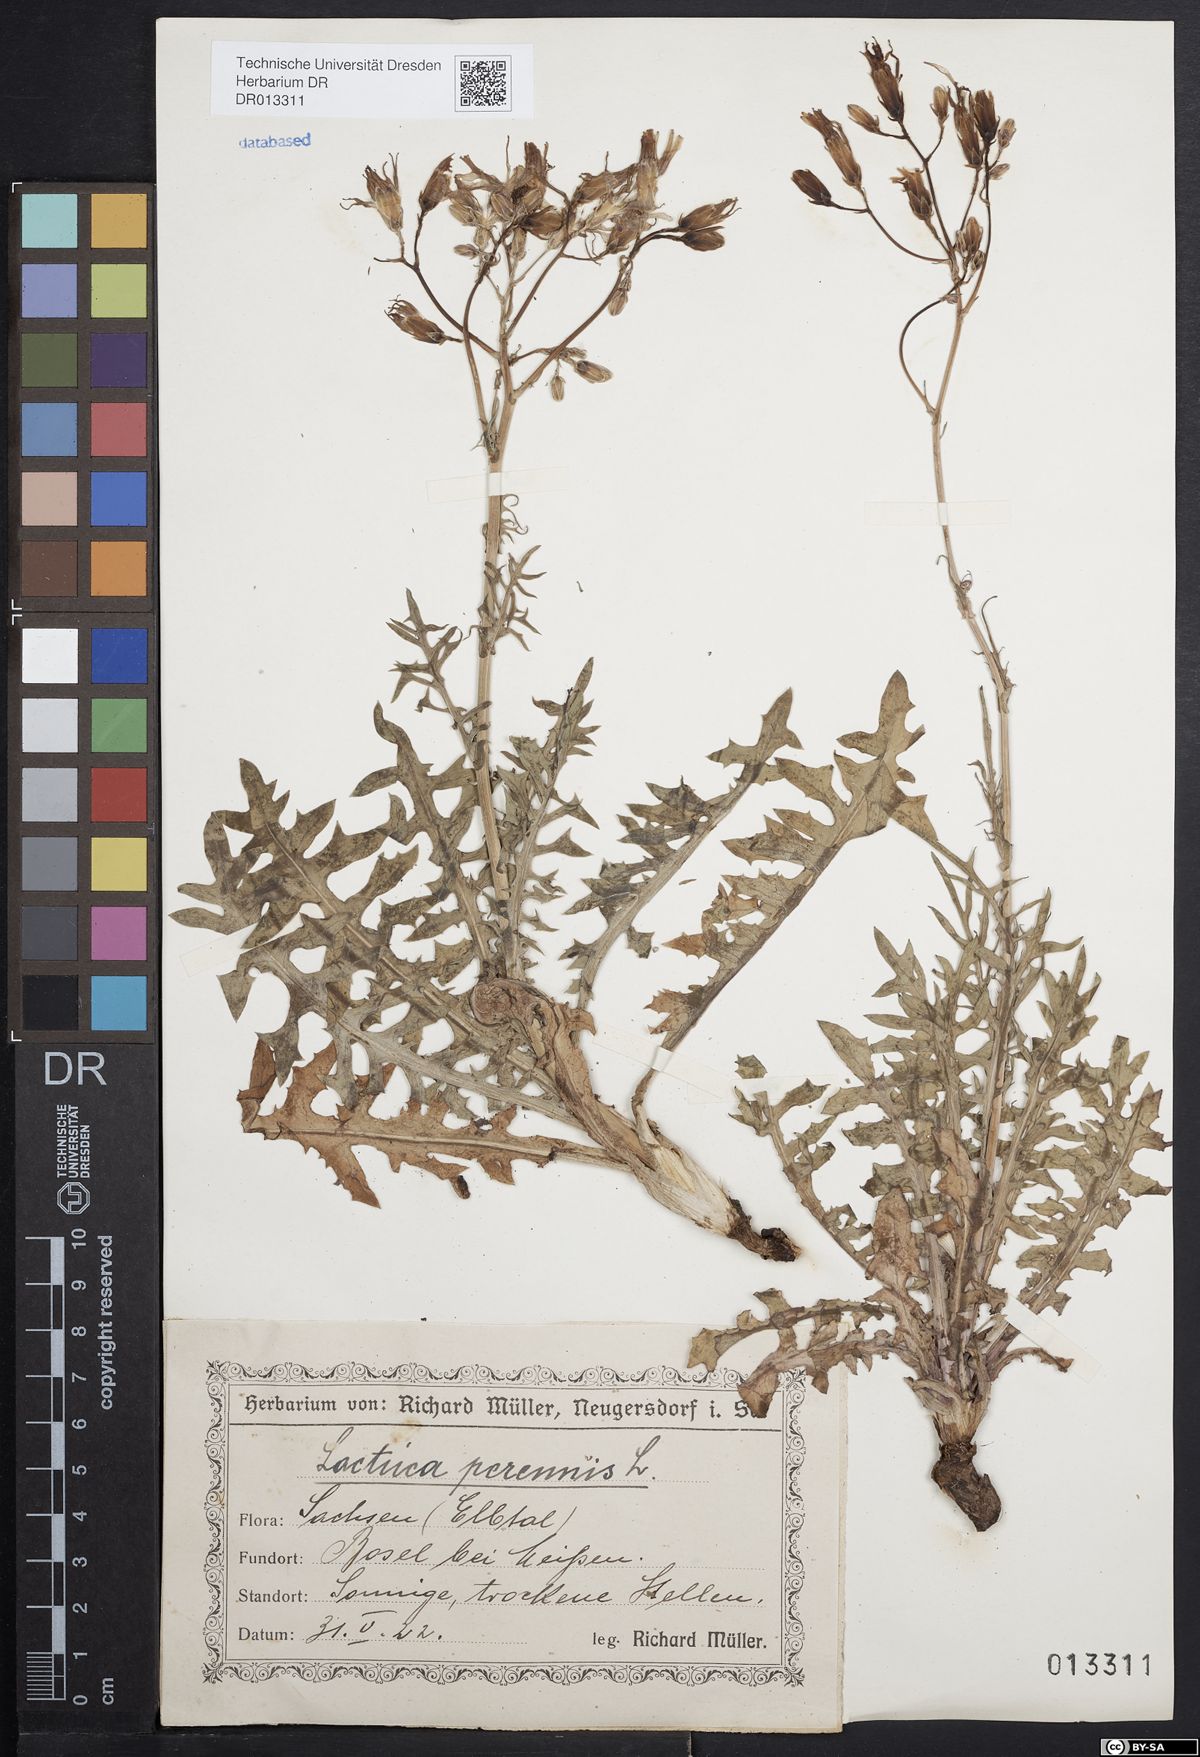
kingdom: Plantae
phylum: Tracheophyta
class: Magnoliopsida
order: Asterales
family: Asteraceae
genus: Lactuca
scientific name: Lactuca perennis
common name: Mountain lettuce
